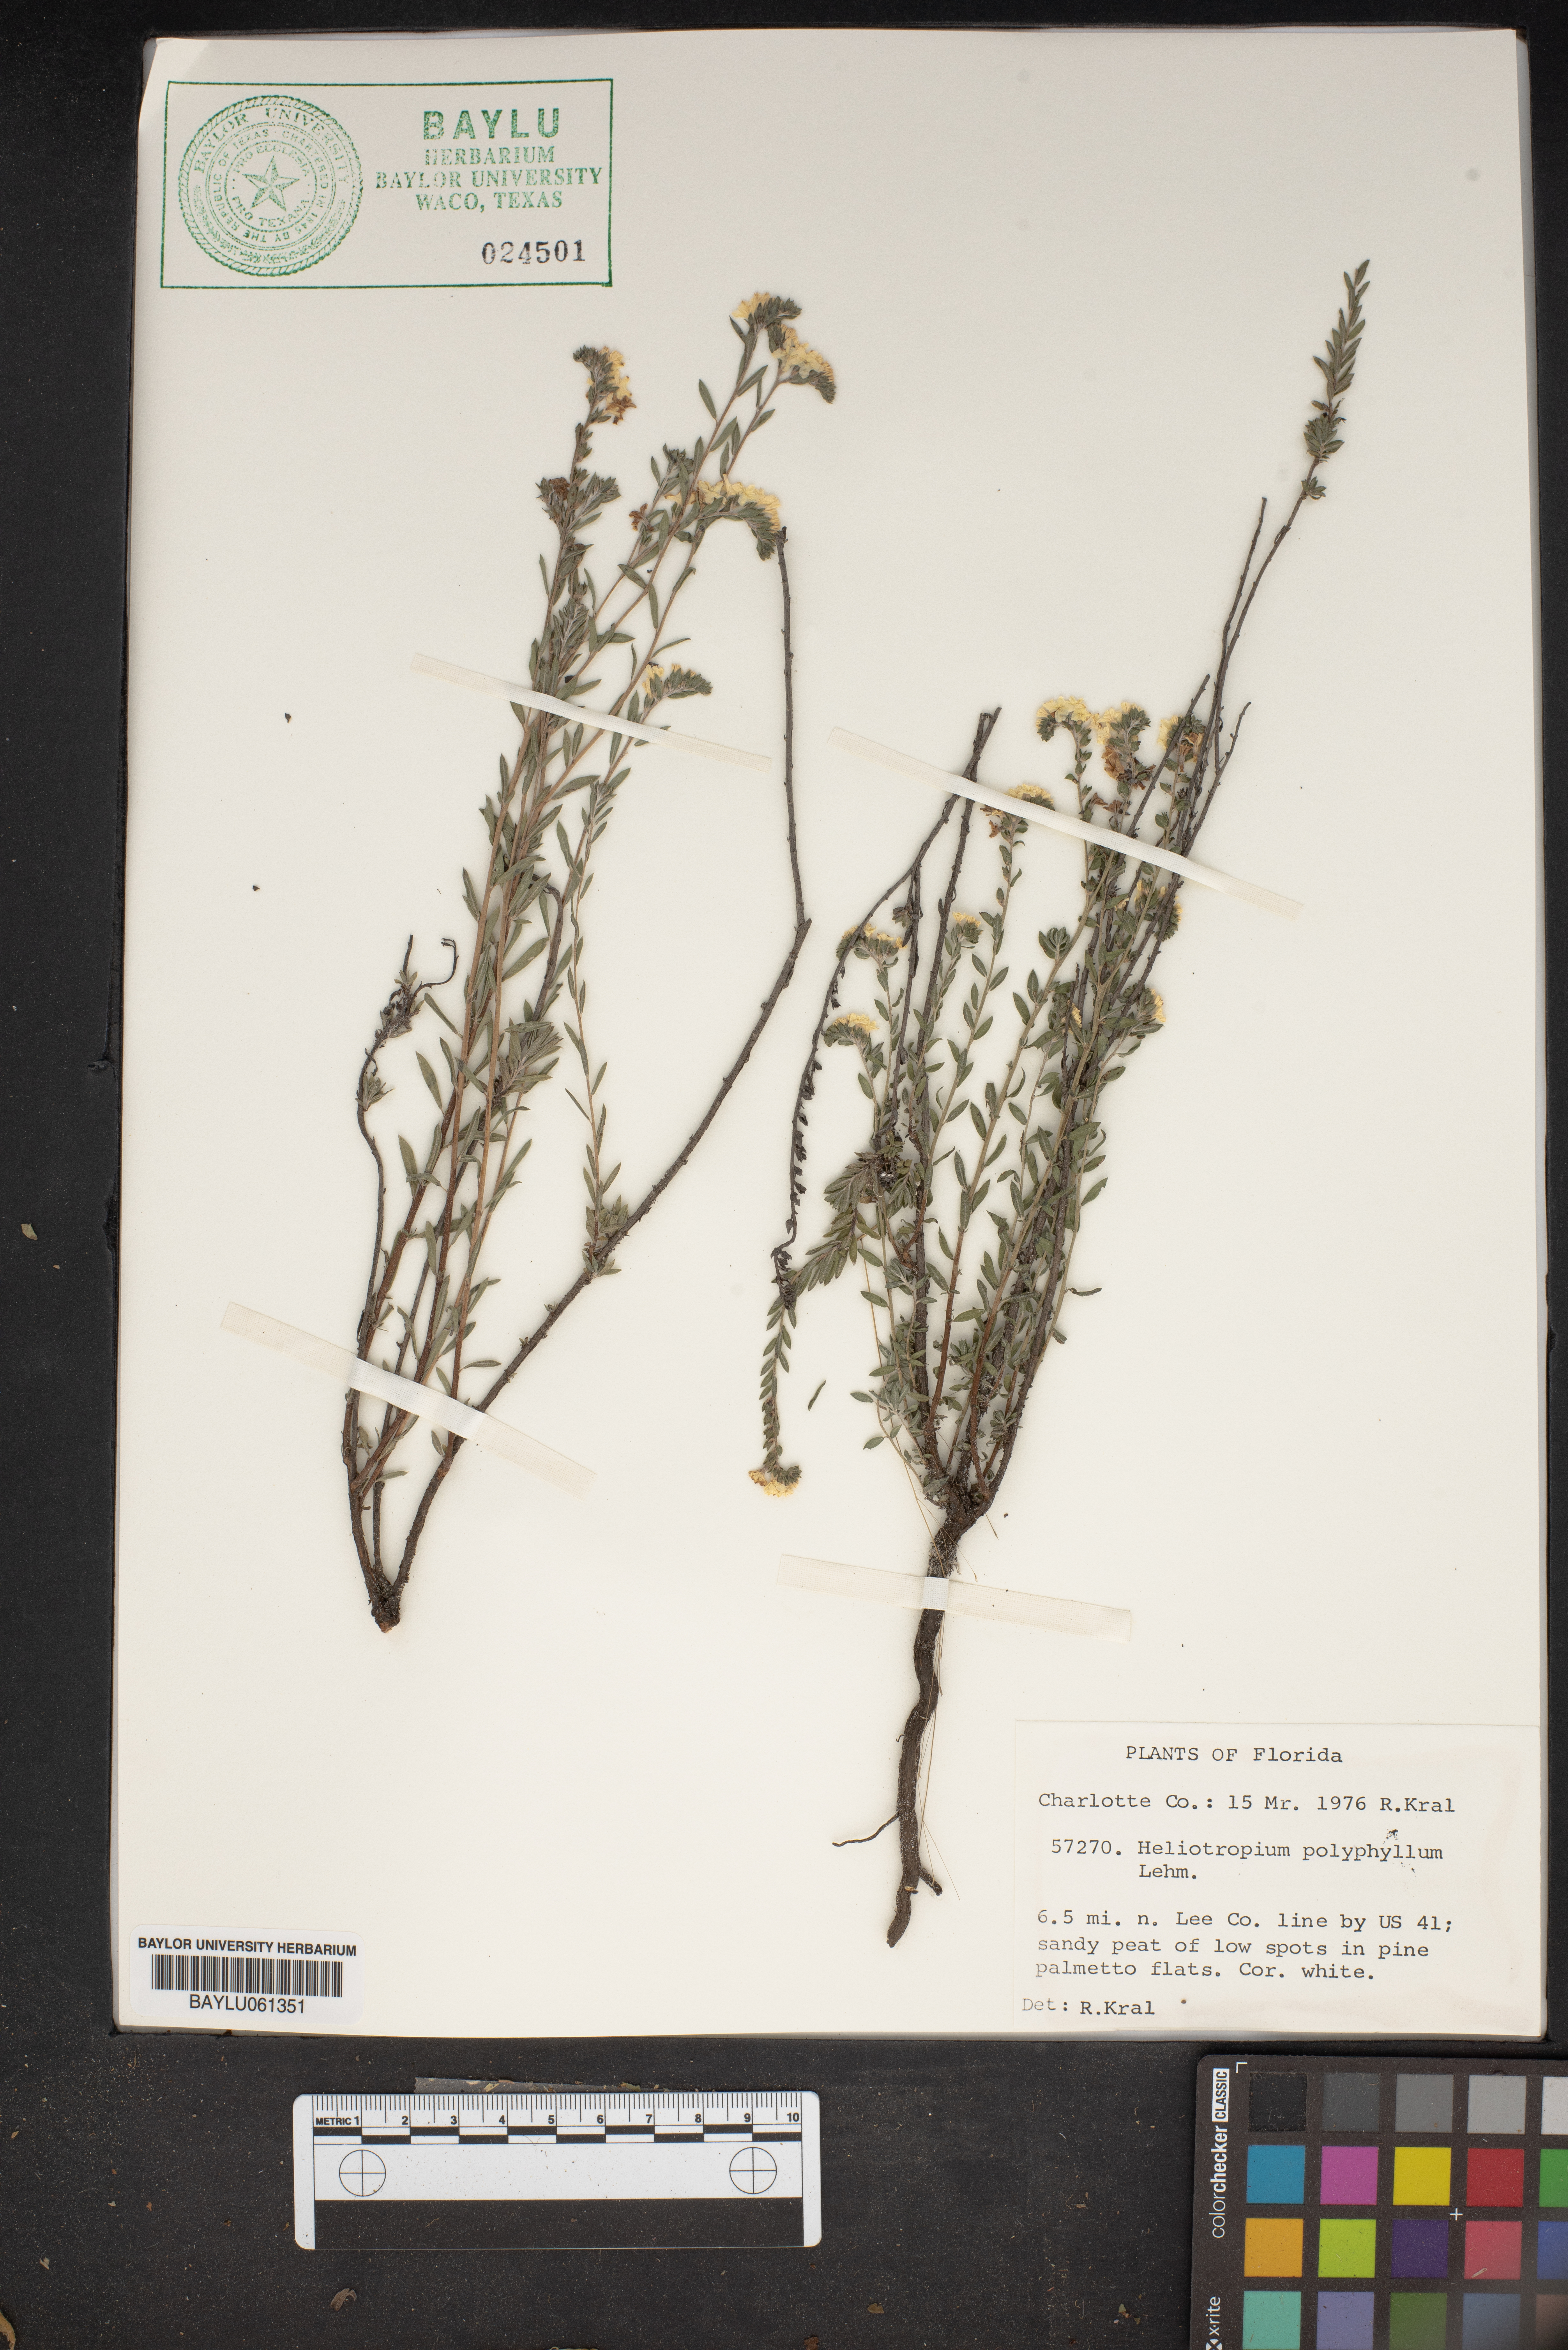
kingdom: Plantae
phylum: Tracheophyta
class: Magnoliopsida
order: Boraginales
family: Heliotropiaceae
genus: Euploca
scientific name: Euploca polyphylla
